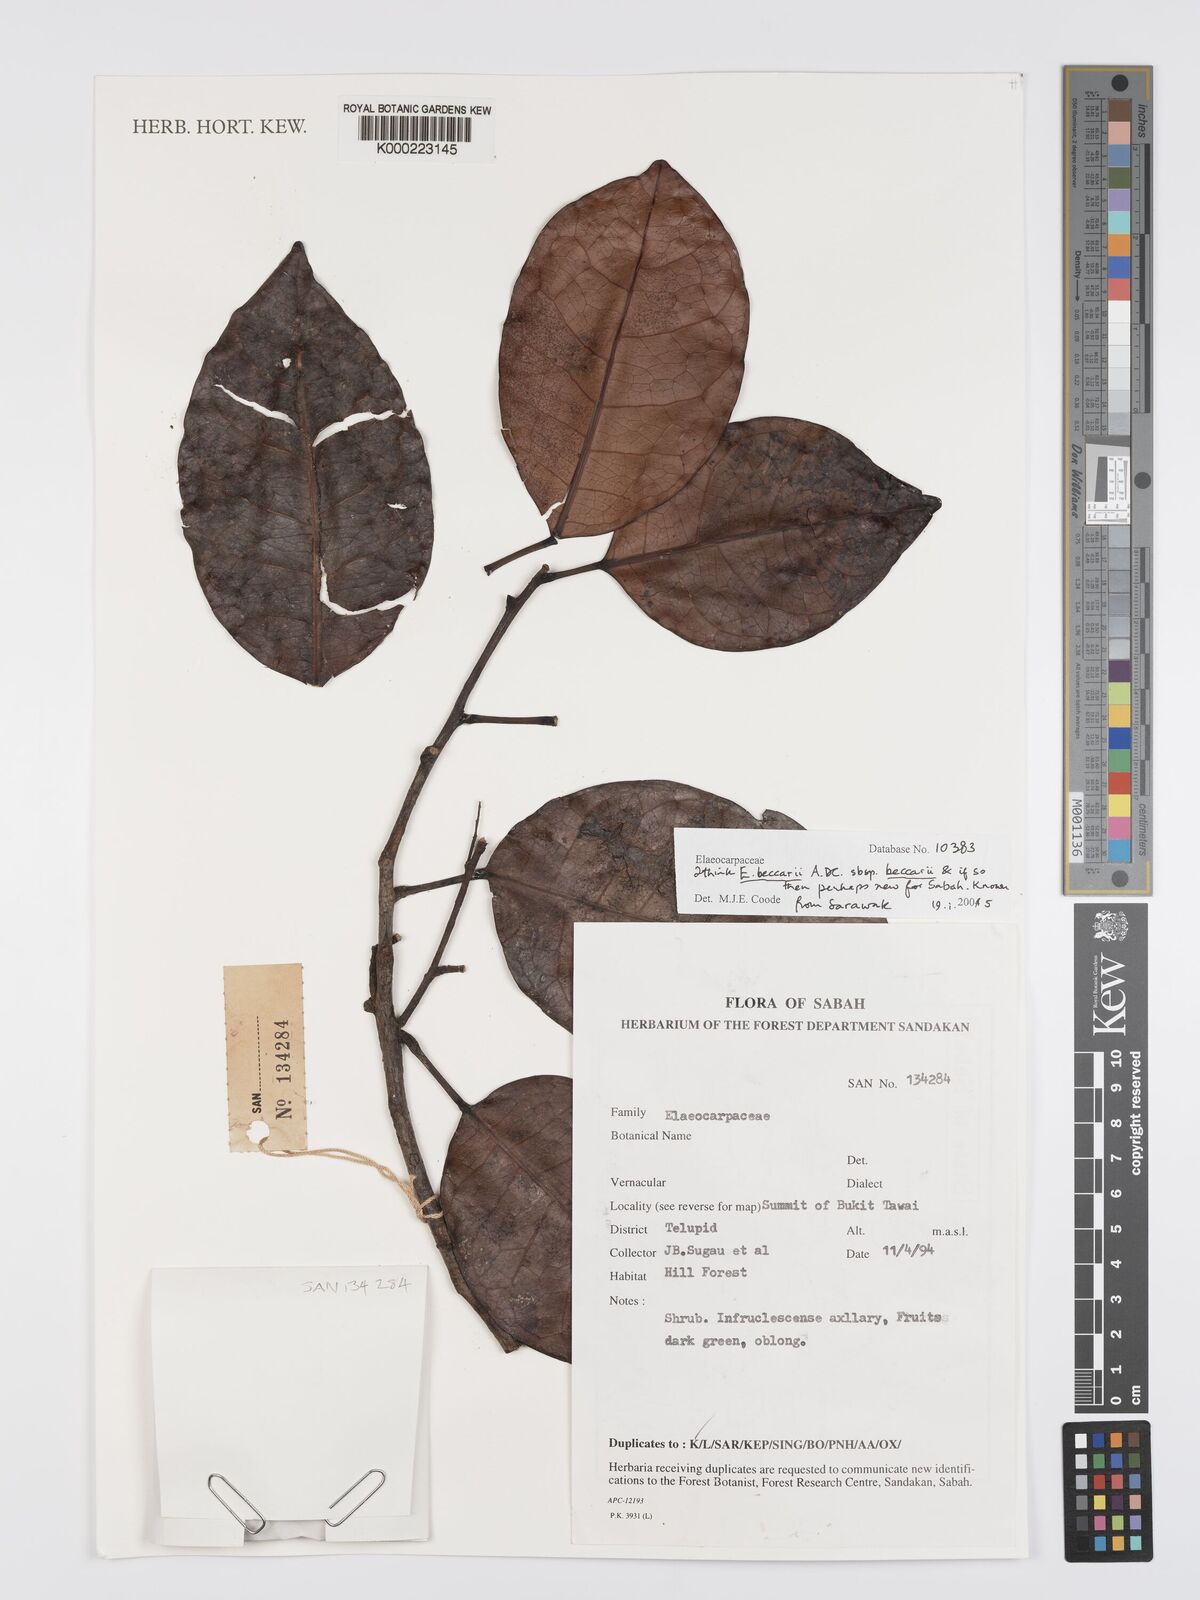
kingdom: Plantae
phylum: Tracheophyta
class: Magnoliopsida
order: Oxalidales
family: Elaeocarpaceae
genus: Elaeocarpus
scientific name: Elaeocarpus beccarii
